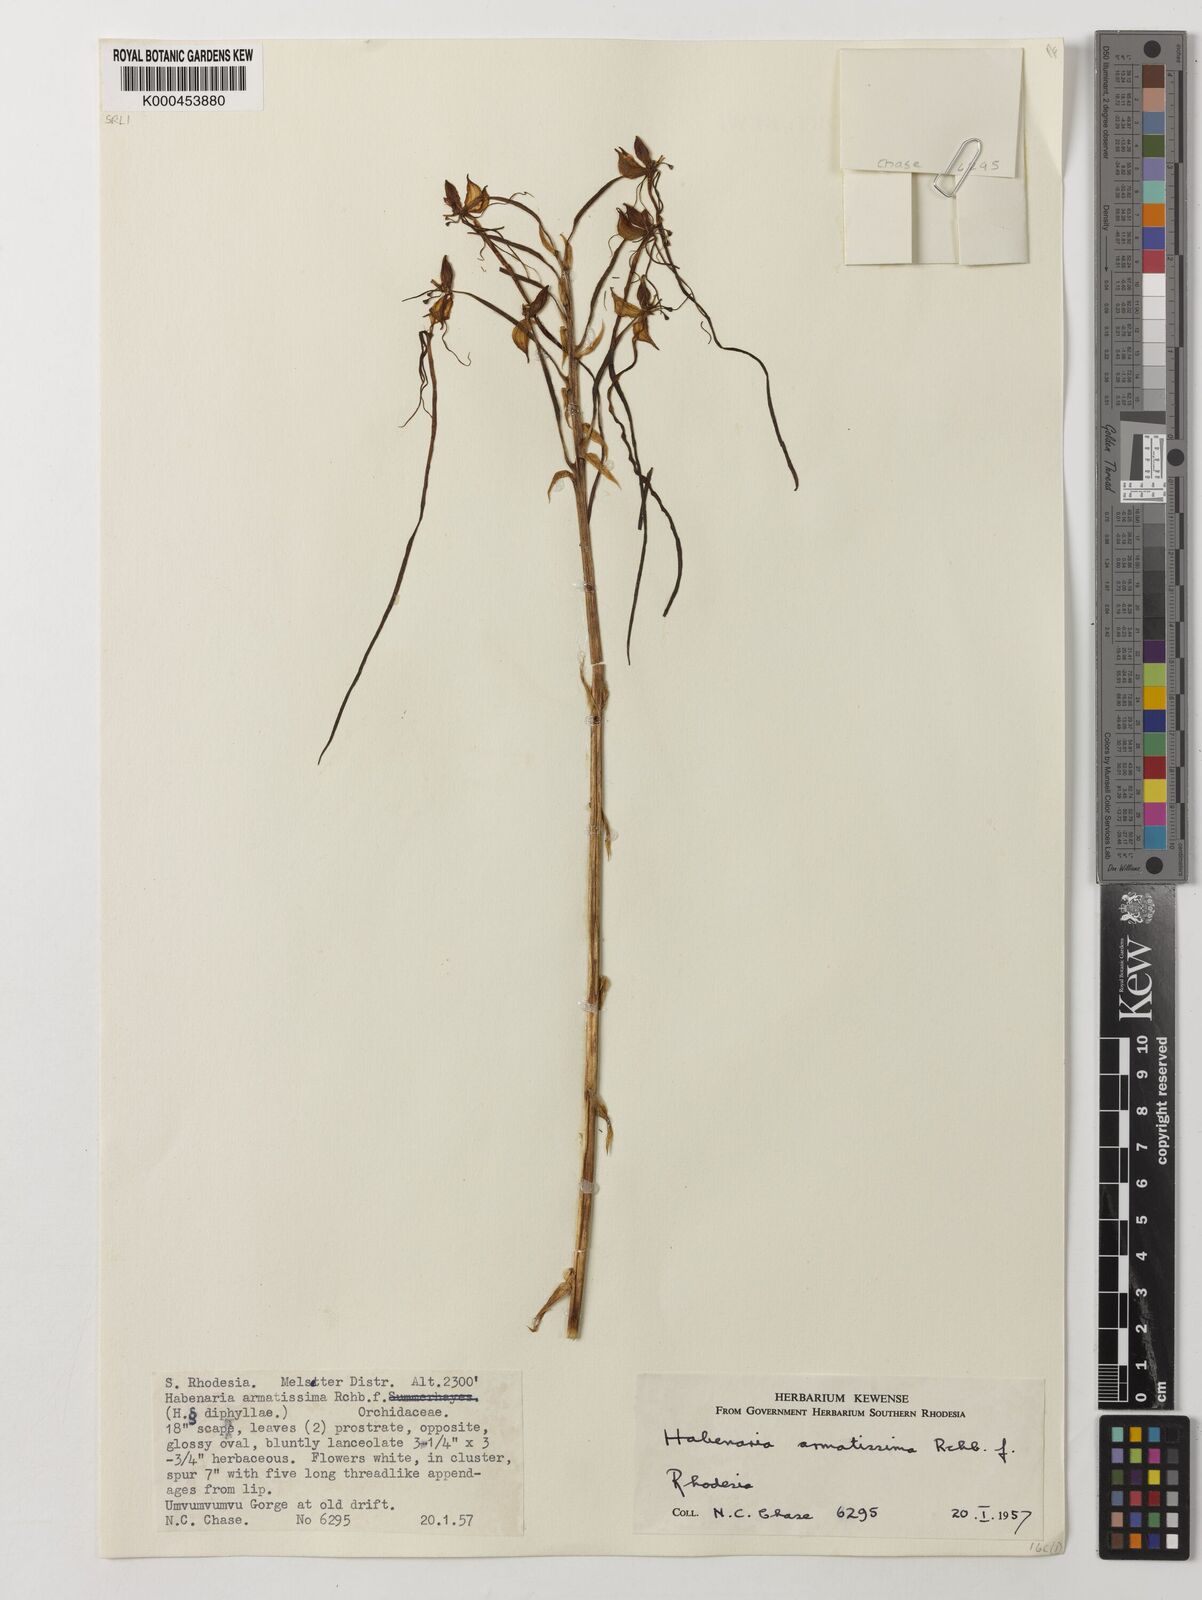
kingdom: Plantae
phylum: Tracheophyta
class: Liliopsida
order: Asparagales
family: Orchidaceae
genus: Habenaria
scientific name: Habenaria armatissima
